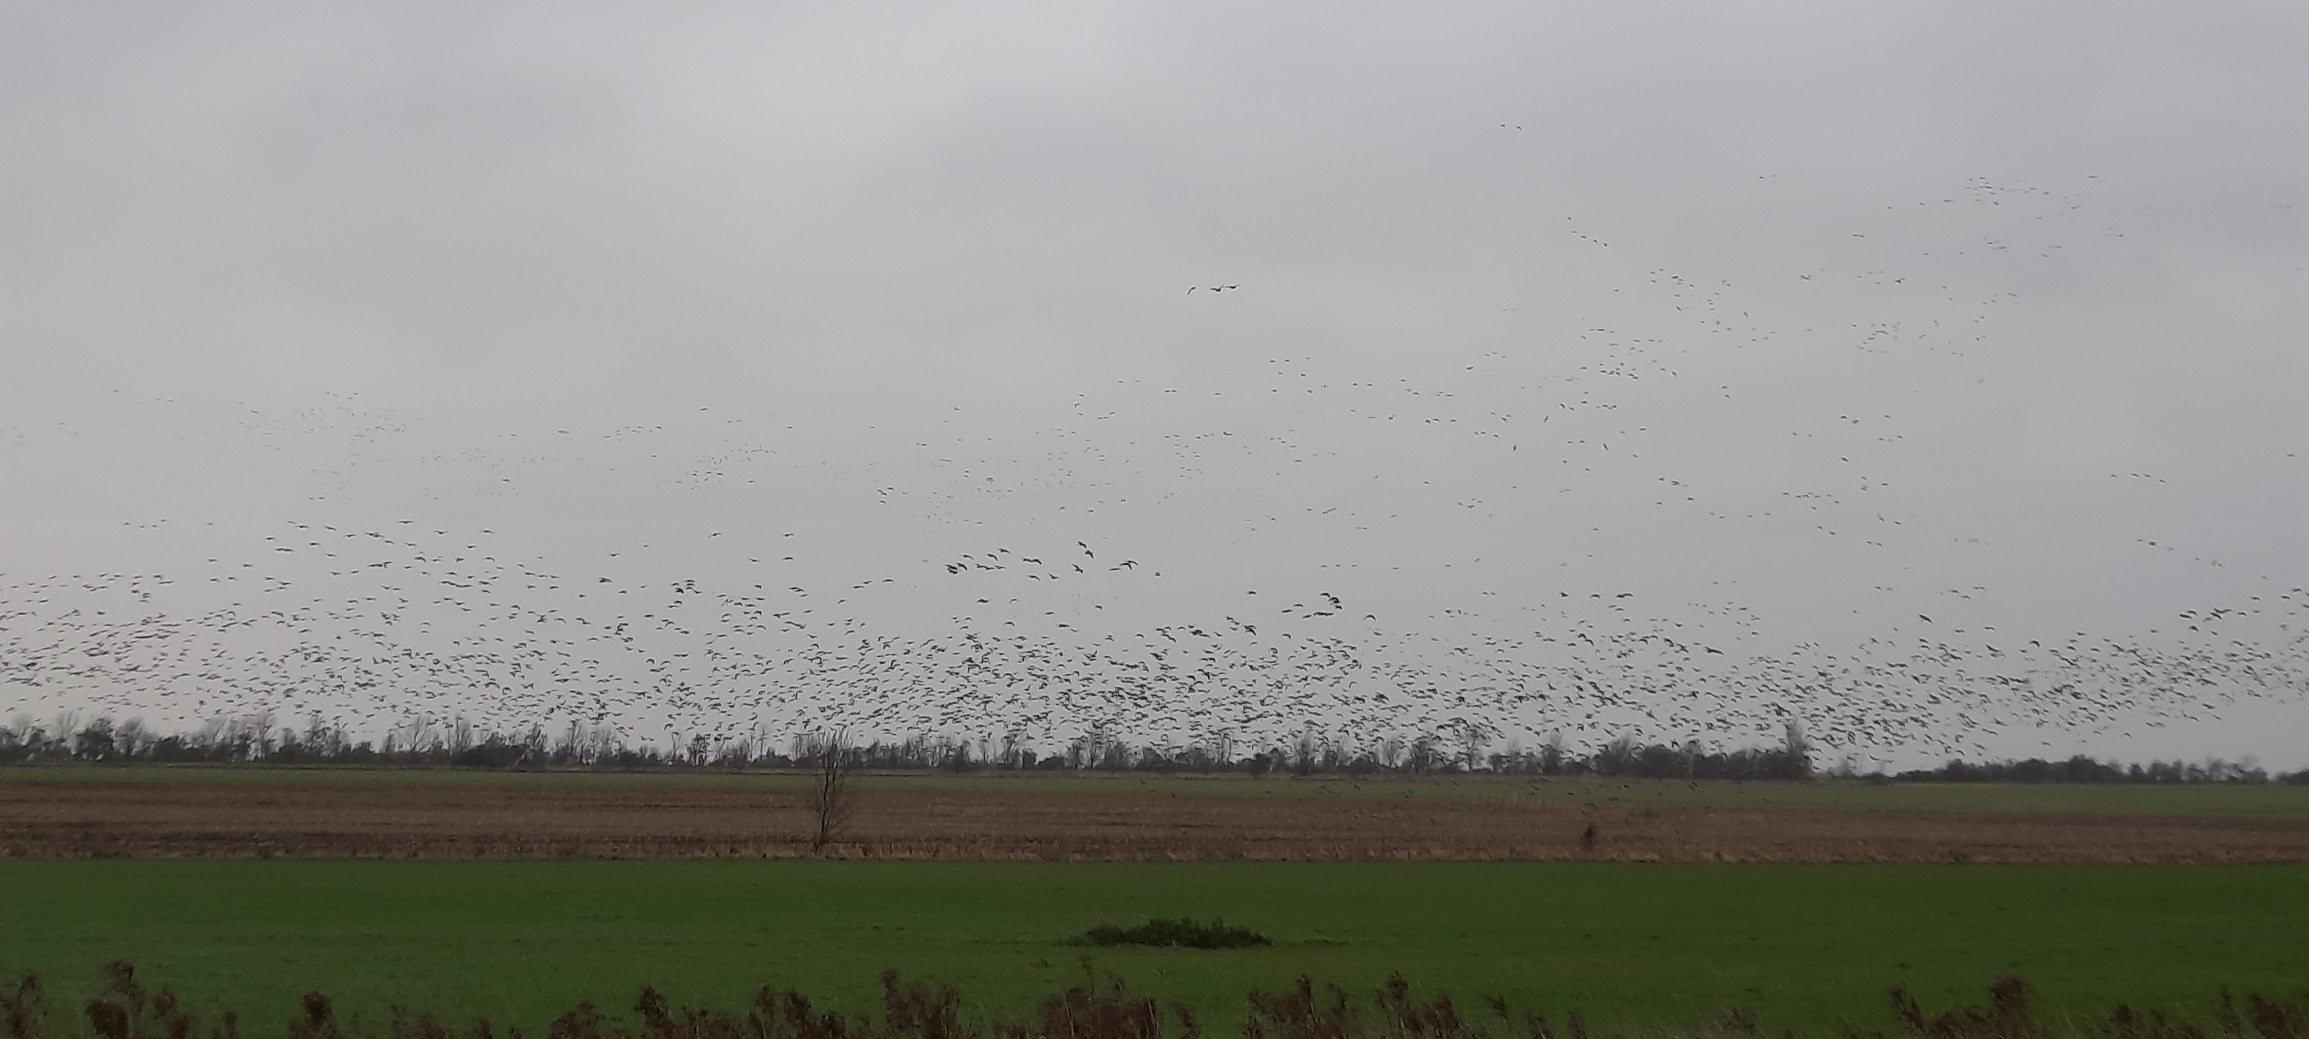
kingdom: Animalia
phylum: Chordata
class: Aves
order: Anseriformes
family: Anatidae
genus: Branta
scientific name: Branta leucopsis
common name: Bramgås
